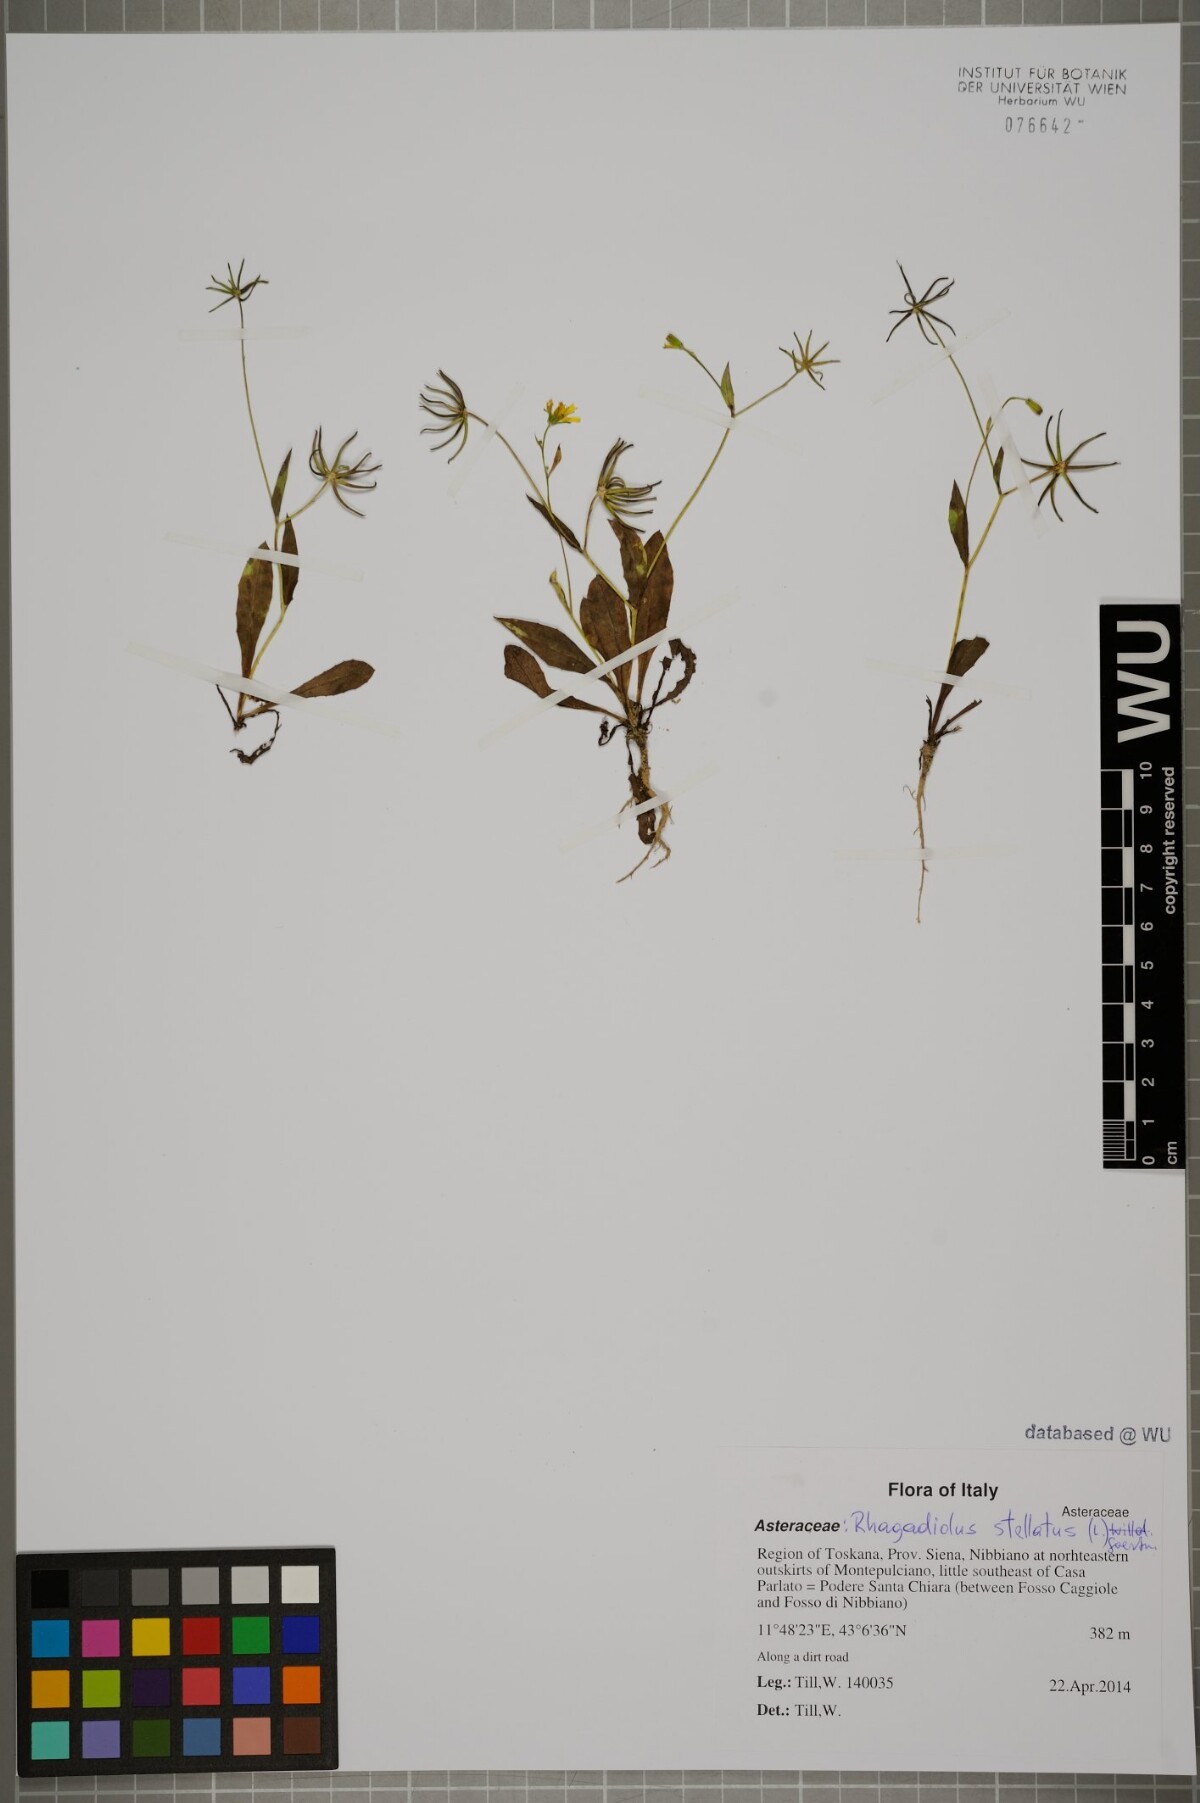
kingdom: Plantae
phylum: Tracheophyta
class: Magnoliopsida
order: Asterales
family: Asteraceae
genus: Rhagadiolus
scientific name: Rhagadiolus stellatus
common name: Star hawkbit
